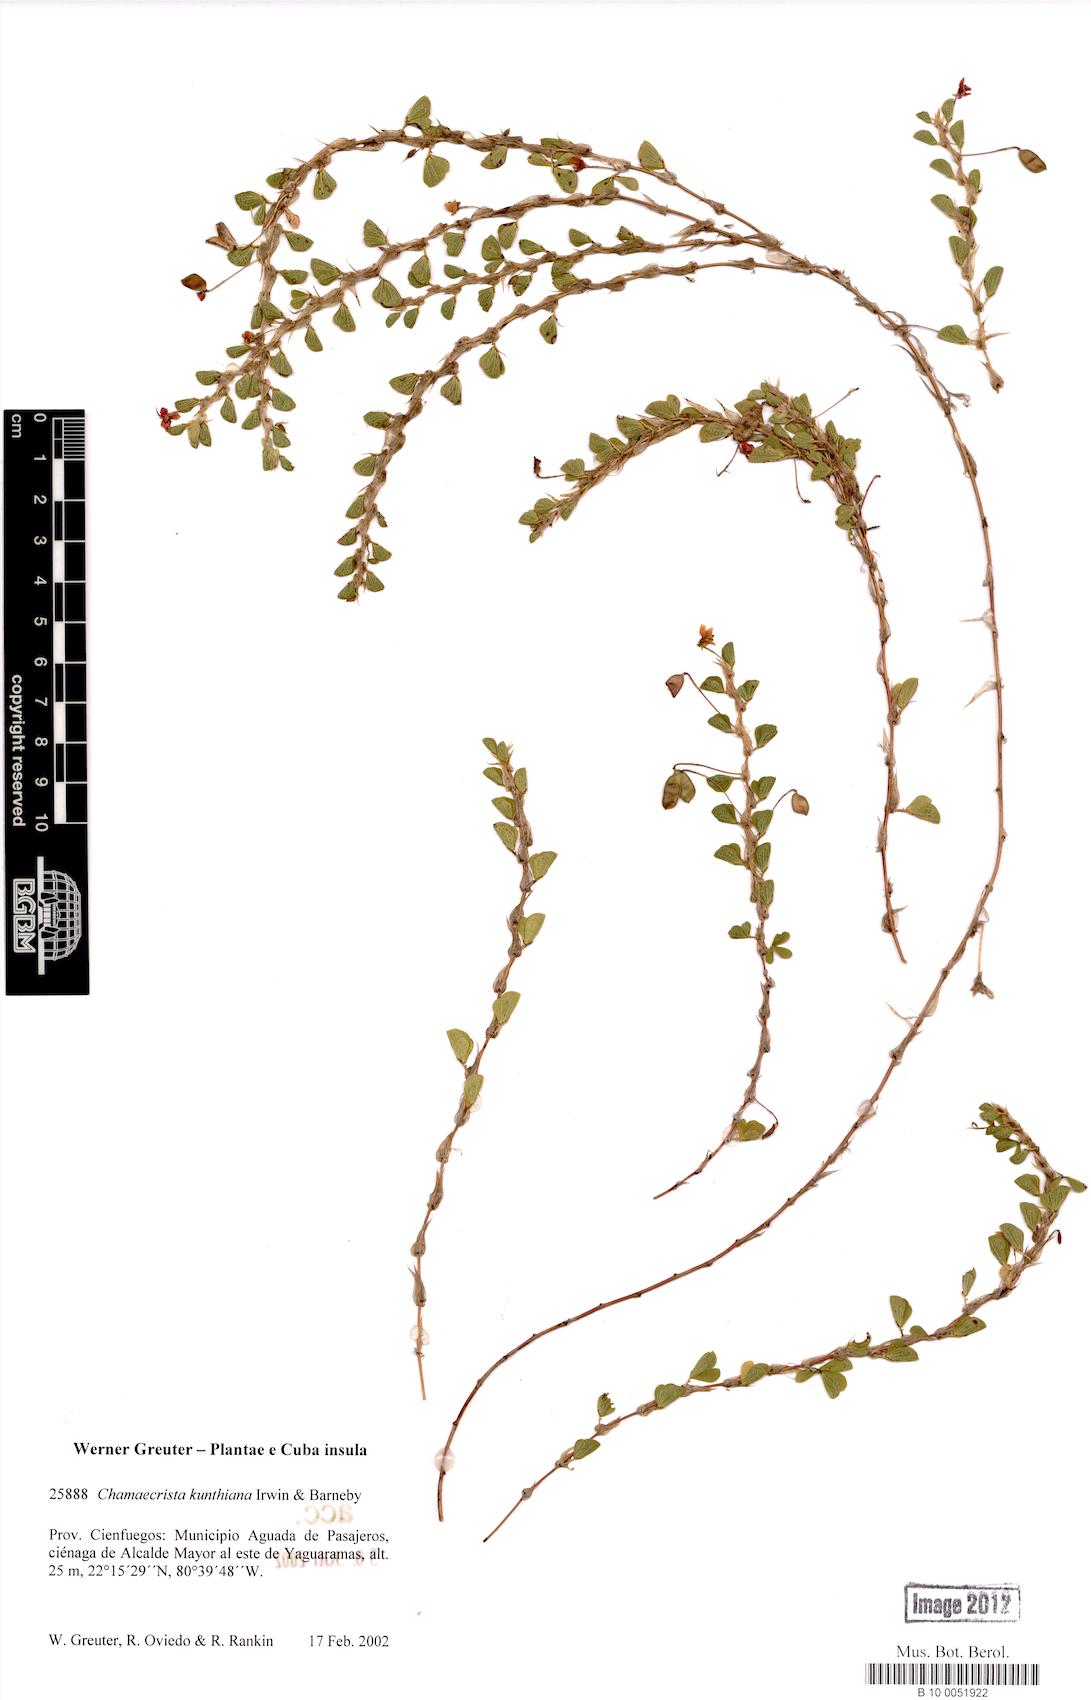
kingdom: Plantae
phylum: Tracheophyta
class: Magnoliopsida
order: Fabales
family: Fabaceae
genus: Chamaecrista
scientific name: Chamaecrista kunthiana
